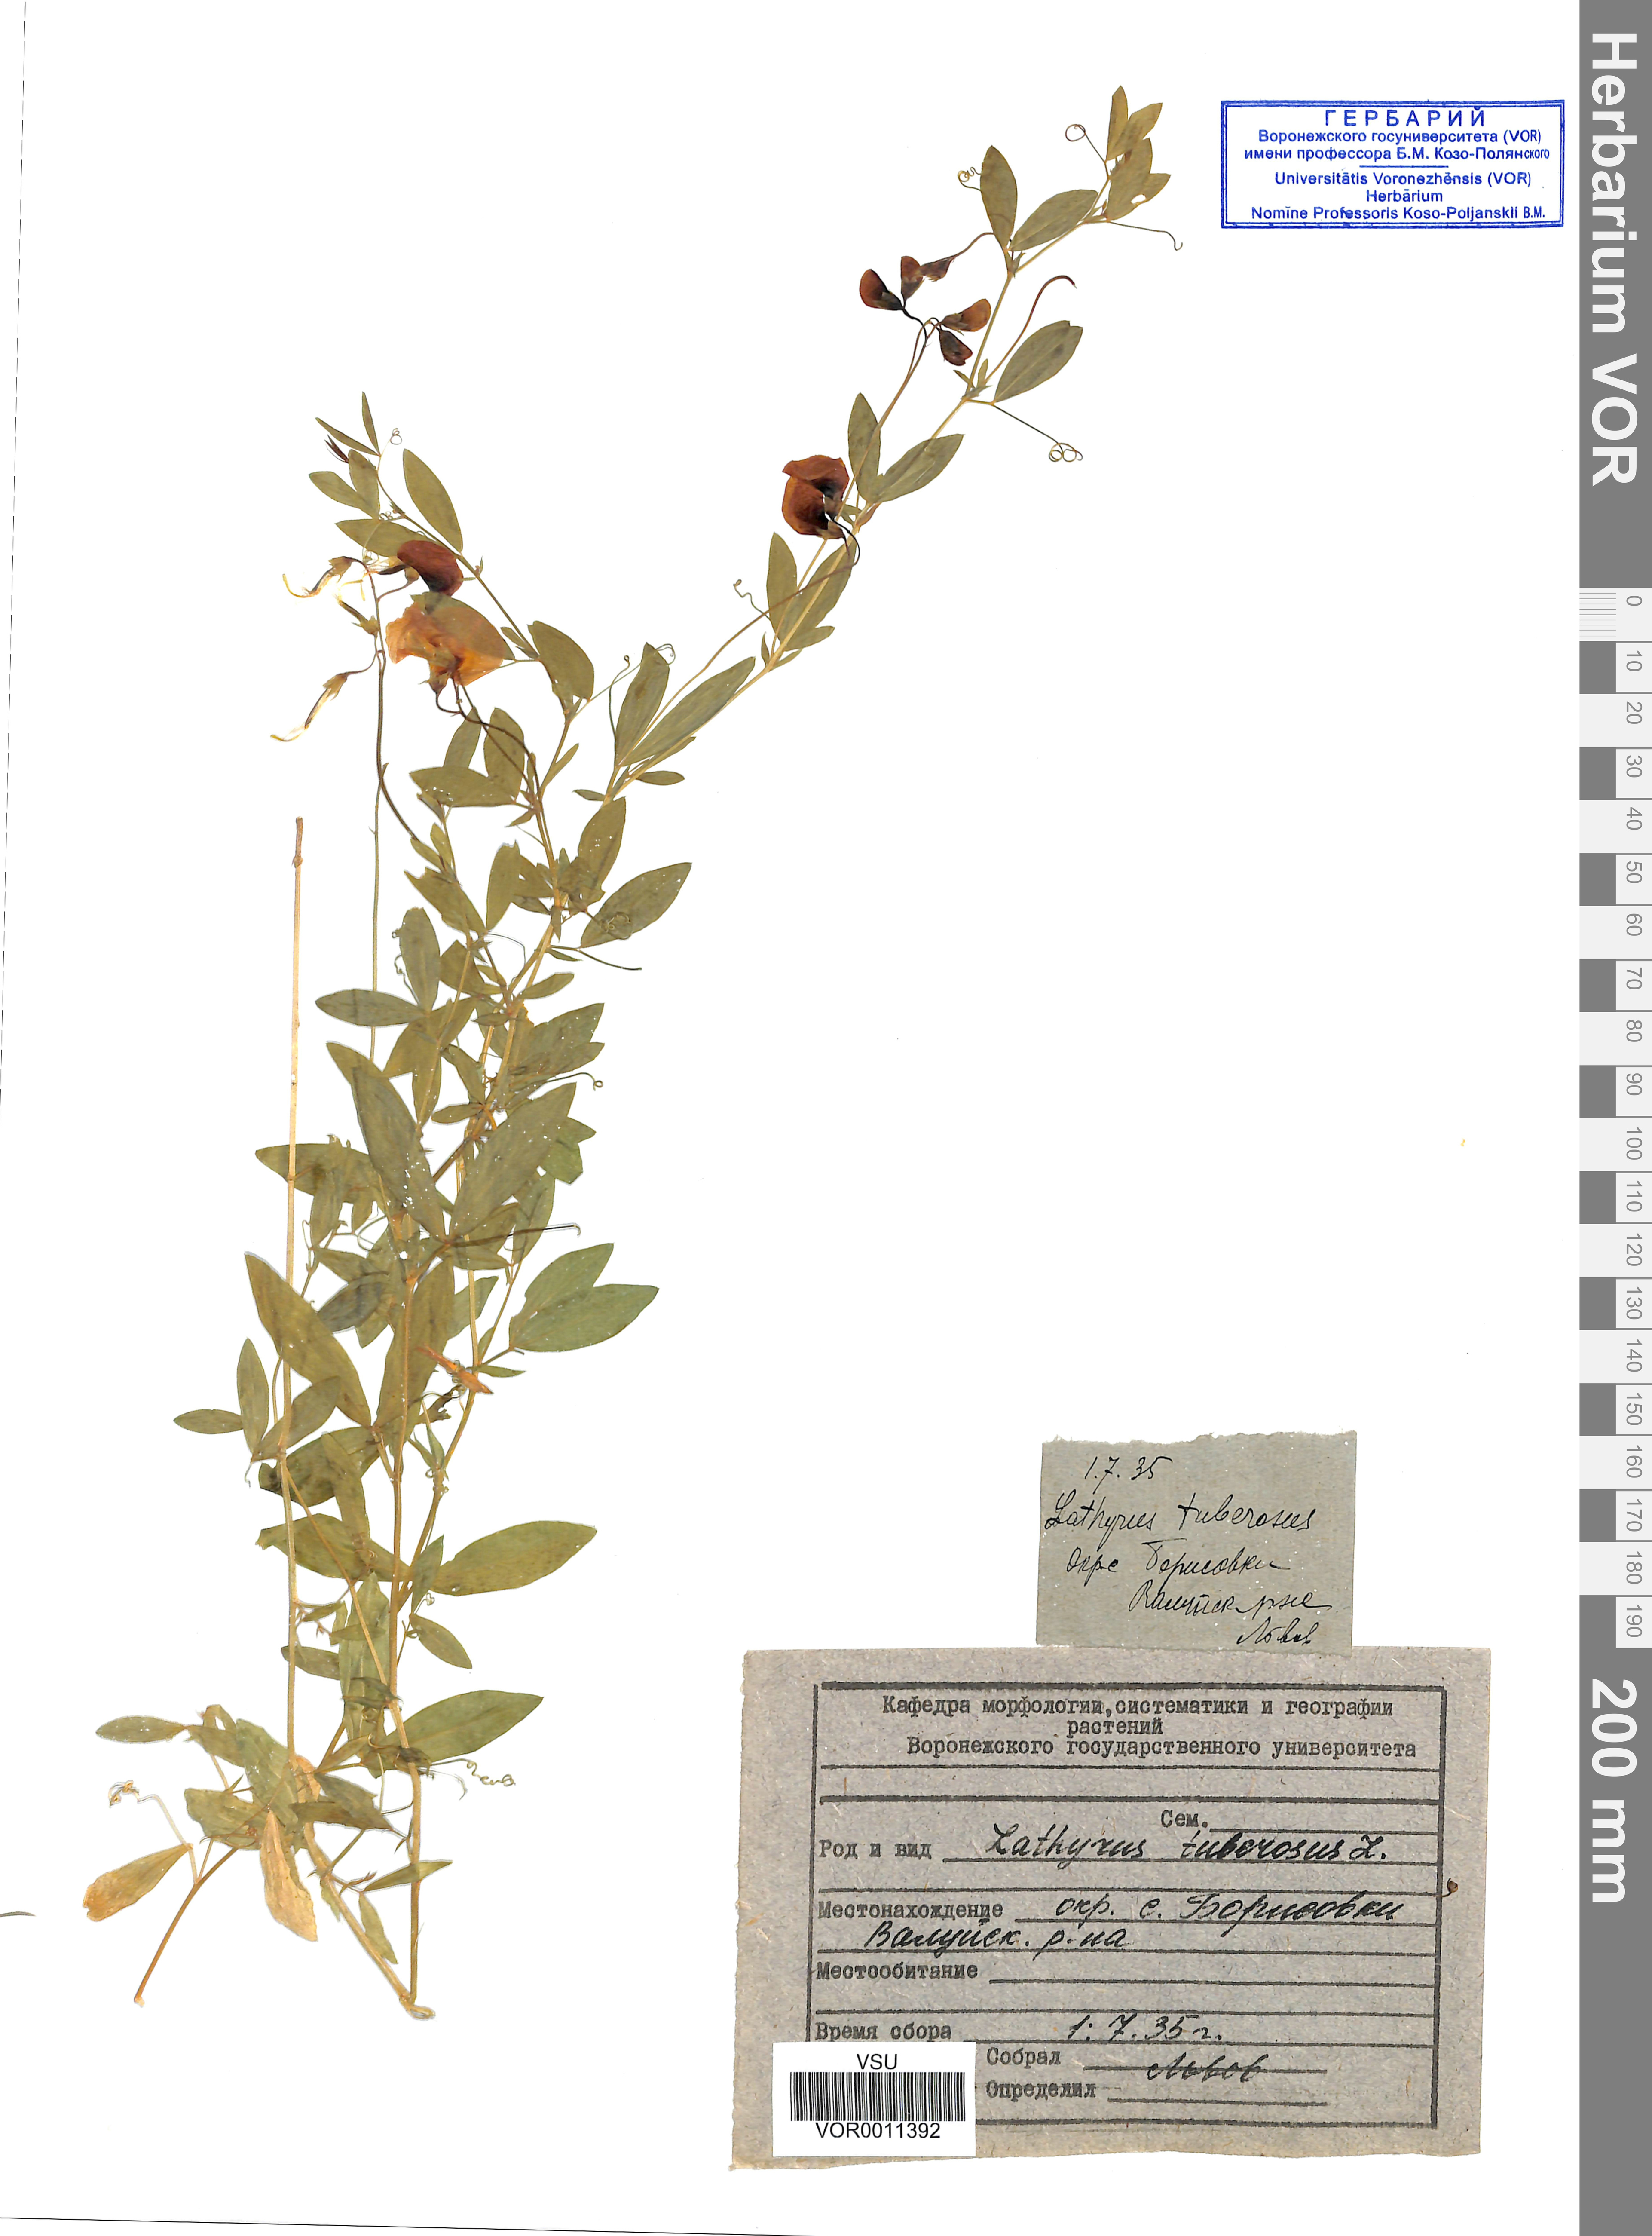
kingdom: Plantae
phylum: Tracheophyta
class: Magnoliopsida
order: Fabales
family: Fabaceae
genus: Lathyrus
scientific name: Lathyrus tuberosus
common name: Tuberous pea
